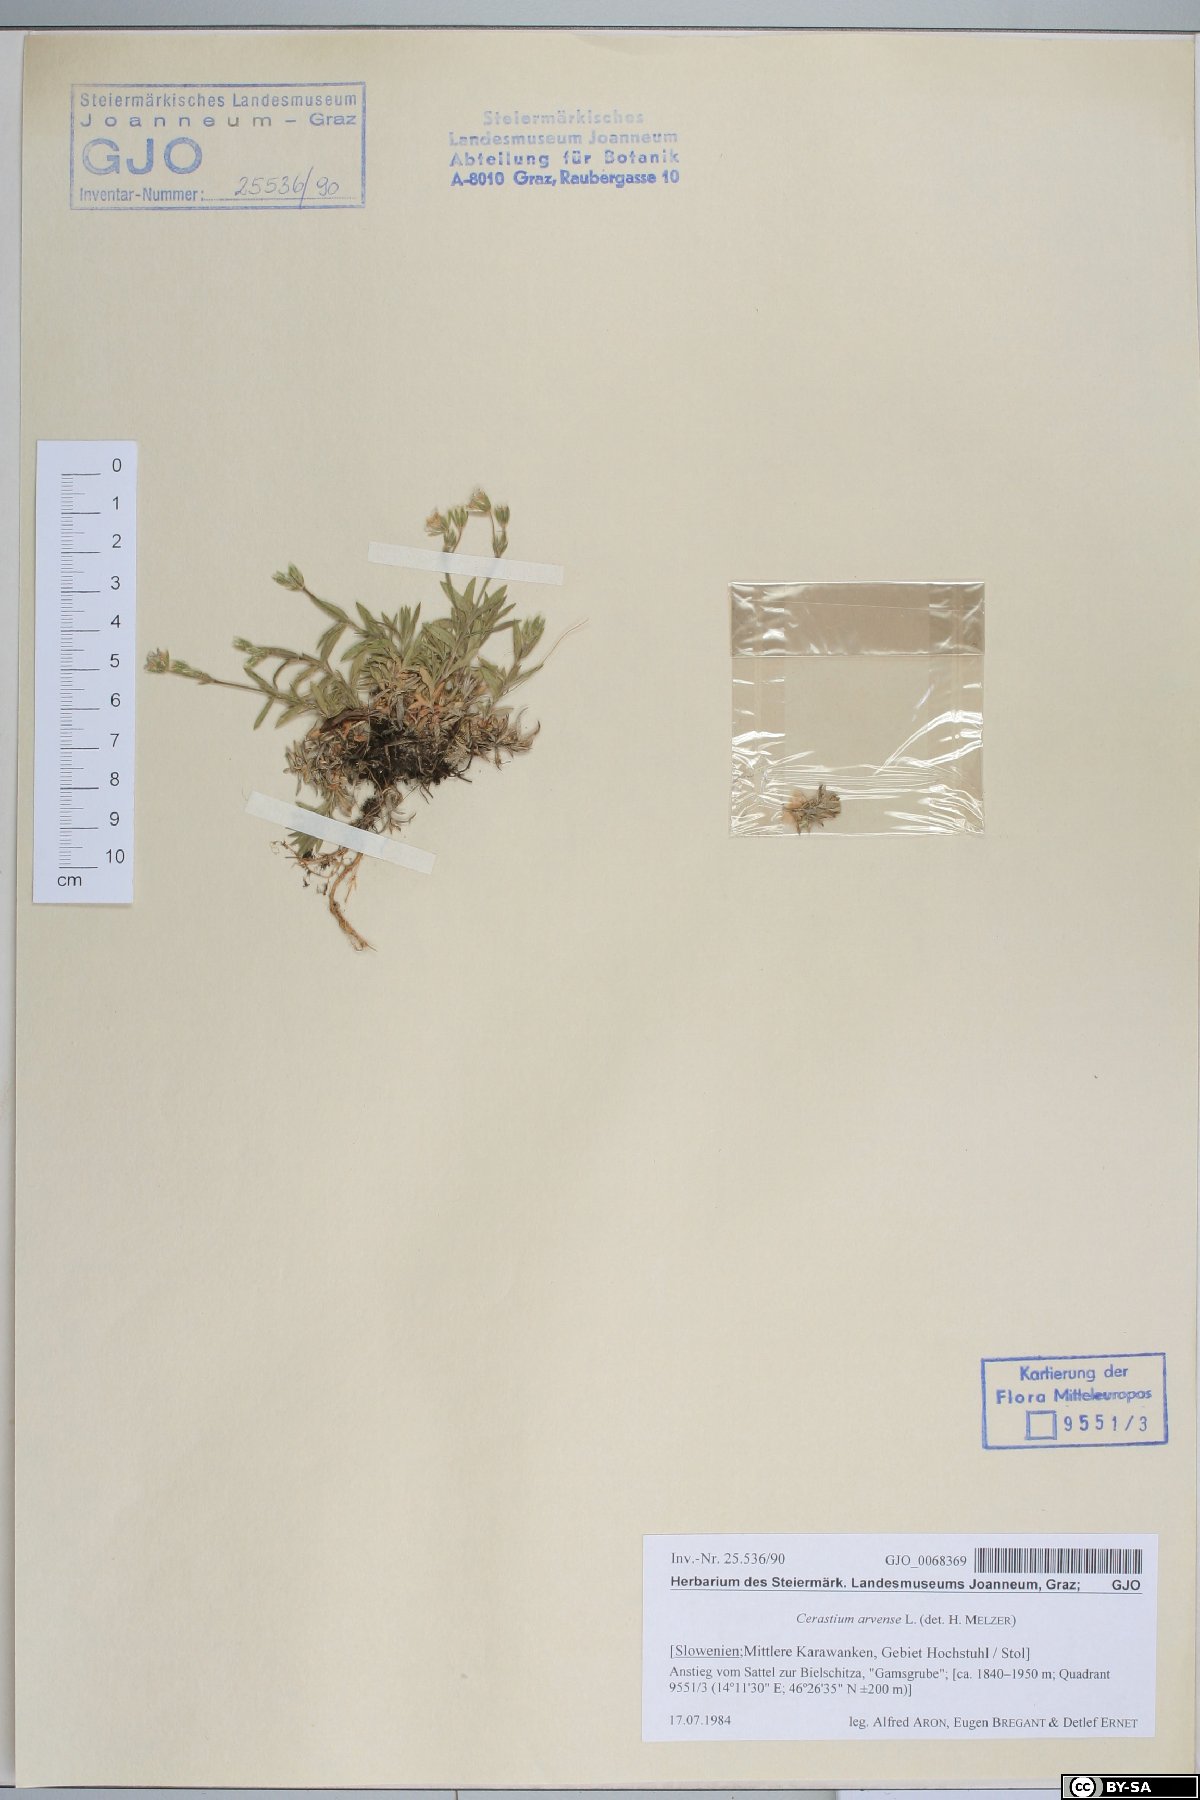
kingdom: Plantae
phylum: Tracheophyta
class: Magnoliopsida
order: Caryophyllales
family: Caryophyllaceae
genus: Cerastium
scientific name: Cerastium arvense
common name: Field mouse-ear
